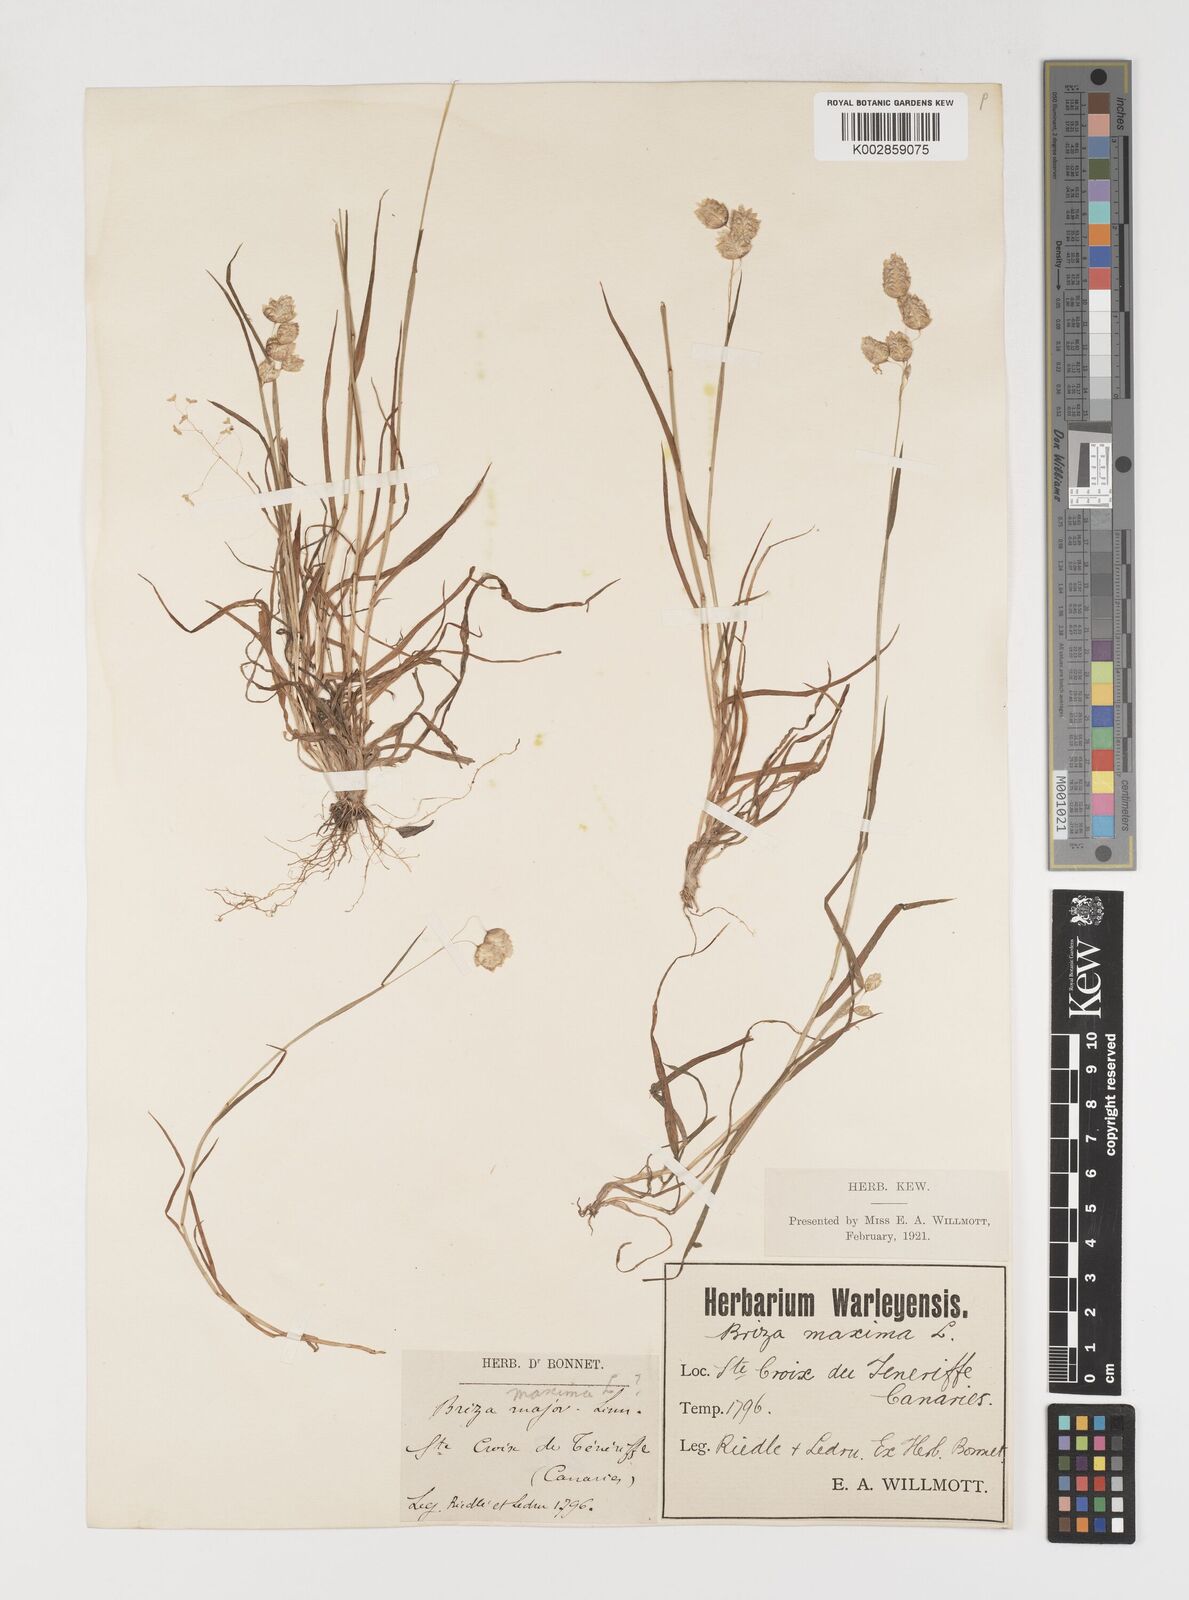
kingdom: Plantae
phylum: Tracheophyta
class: Liliopsida
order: Poales
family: Poaceae
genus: Briza
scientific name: Briza maxima
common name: Big quakinggrass
